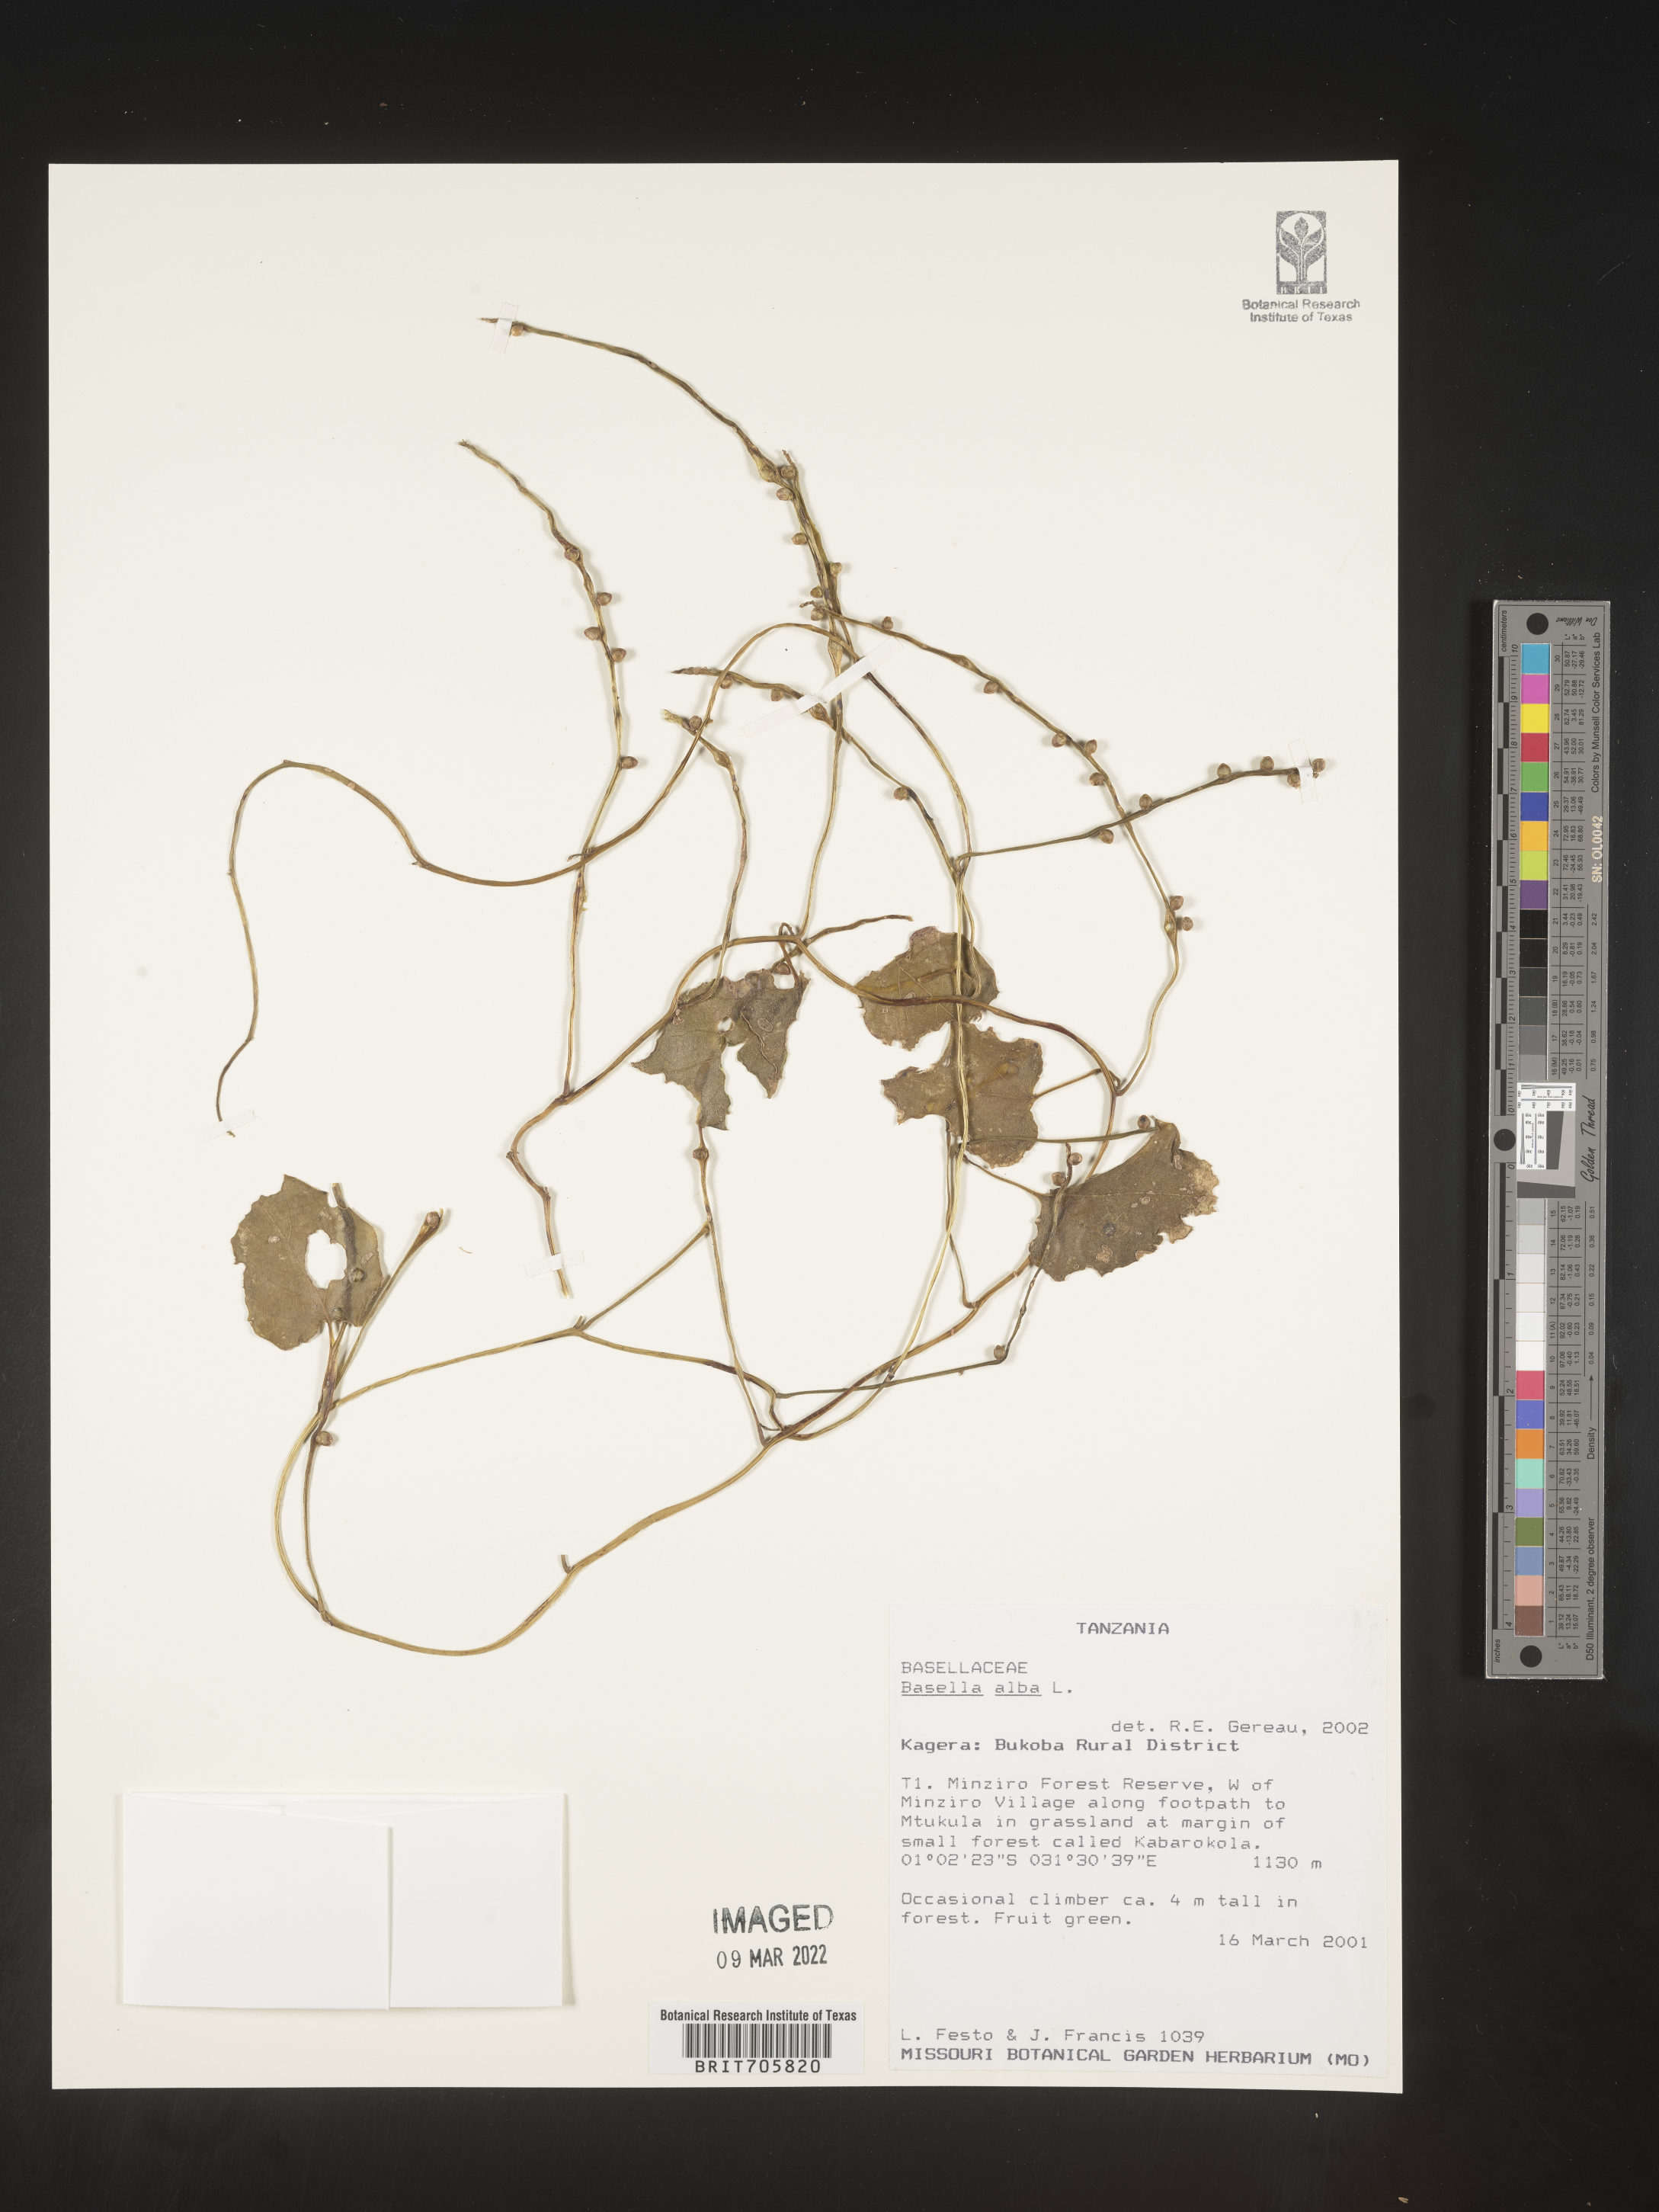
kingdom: Plantae
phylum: Tracheophyta
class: Magnoliopsida
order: Caryophyllales
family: Basellaceae
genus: Basella
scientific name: Basella
